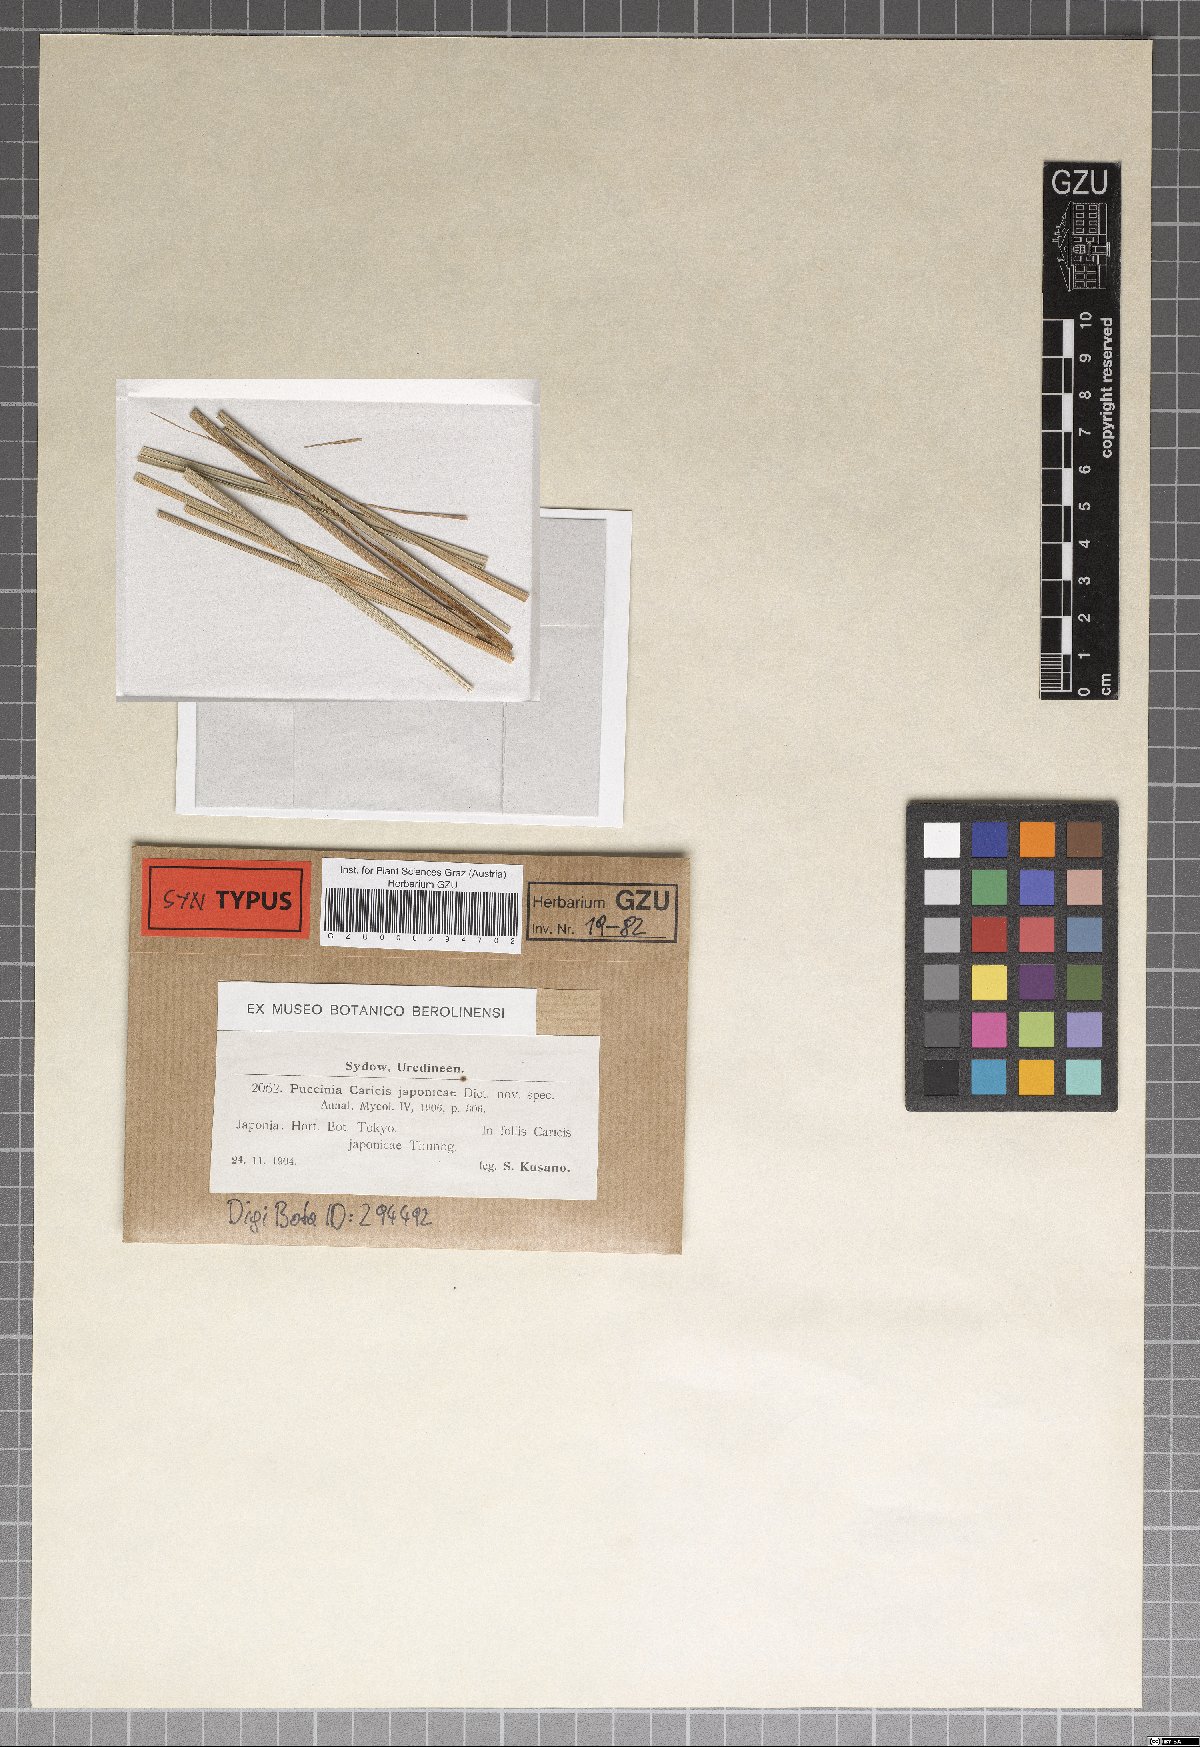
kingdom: Fungi
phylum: Basidiomycota
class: Pucciniomycetes
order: Pucciniales
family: Pucciniaceae
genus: Puccinia
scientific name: Puccinia caricis-japonicae
